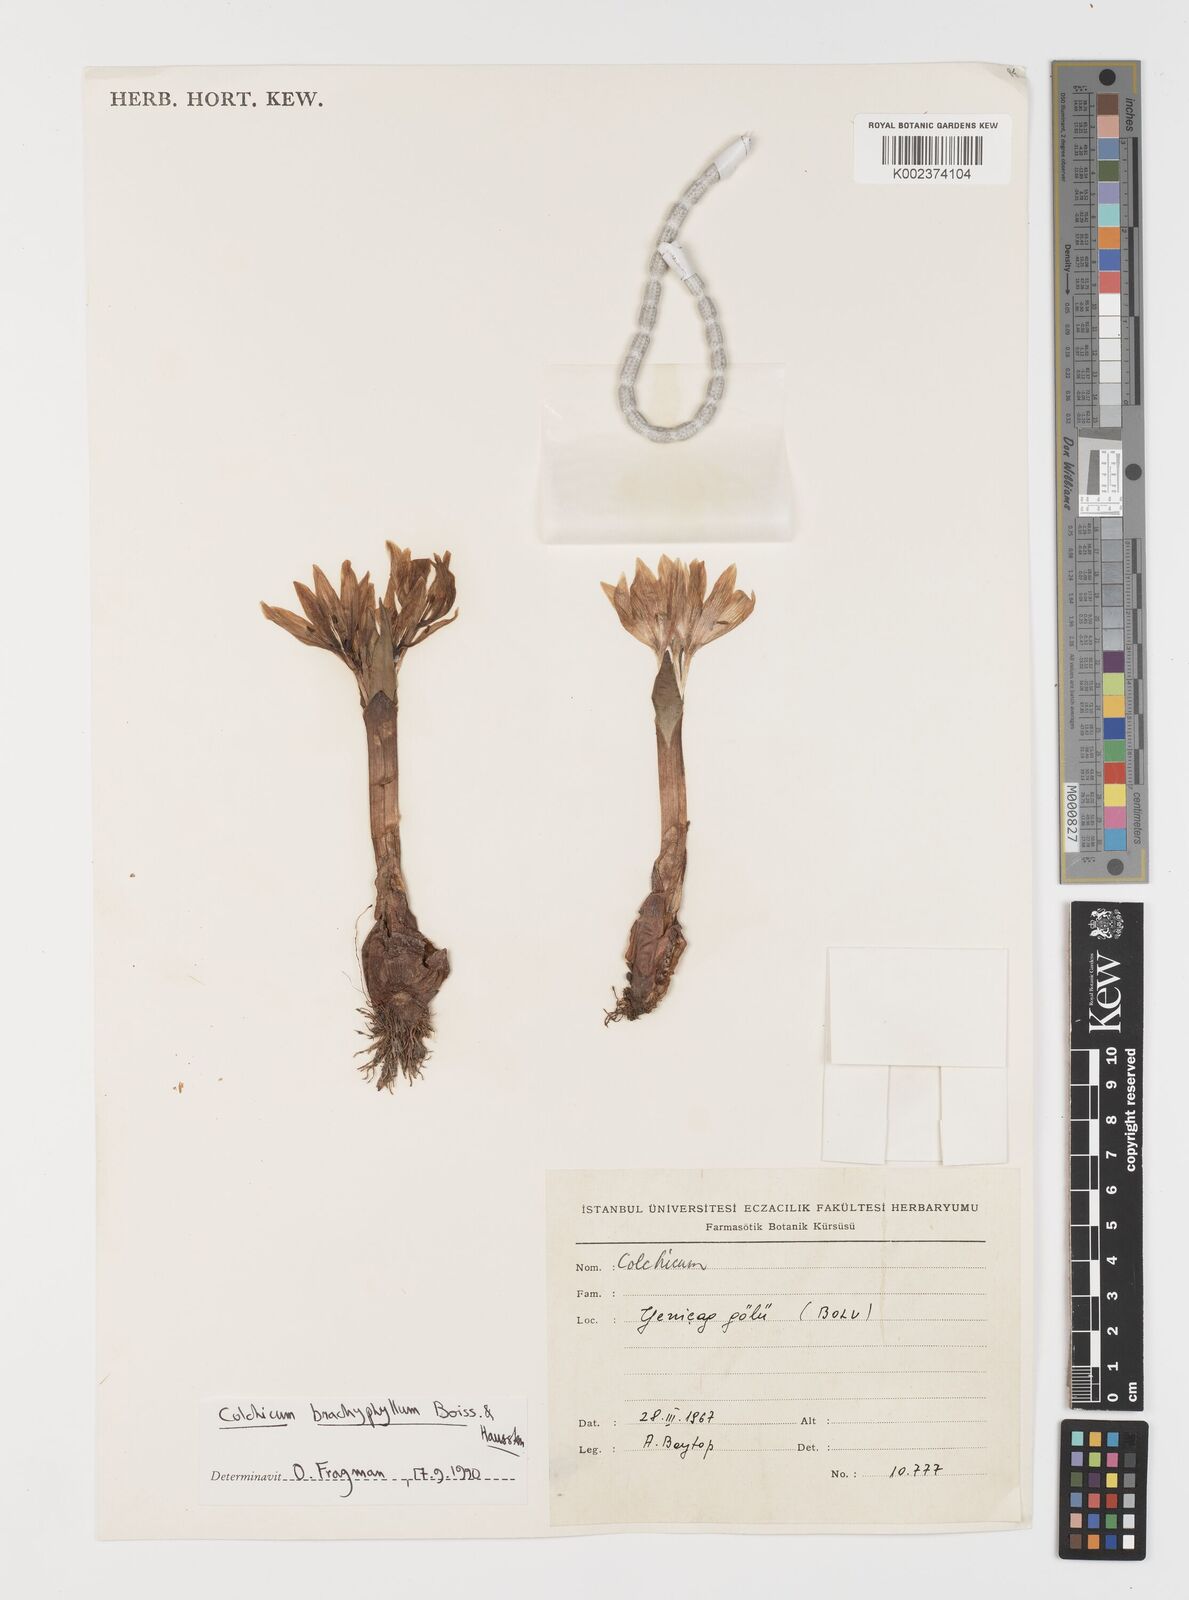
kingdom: Plantae
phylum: Tracheophyta
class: Liliopsida
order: Liliales
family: Colchicaceae
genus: Colchicum
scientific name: Colchicum szovitsii
